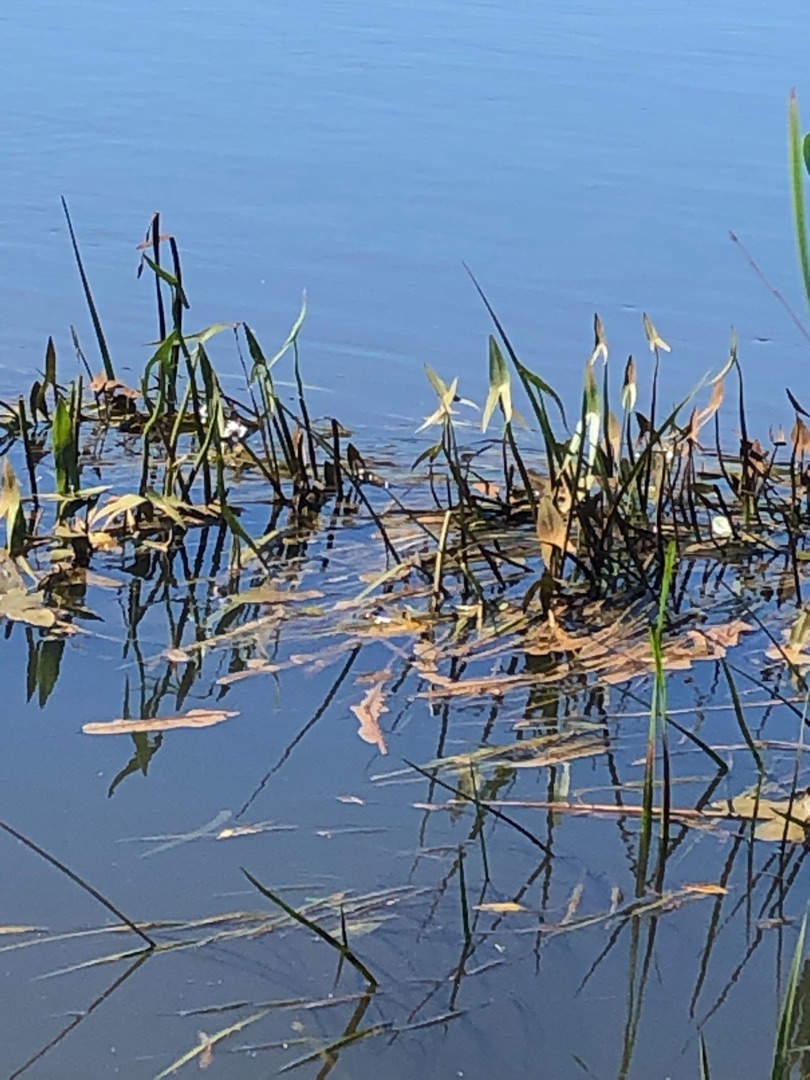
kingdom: Plantae
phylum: Tracheophyta
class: Liliopsida
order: Alismatales
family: Alismataceae
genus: Sagittaria
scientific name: Sagittaria sagittifolia
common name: Pilblad
